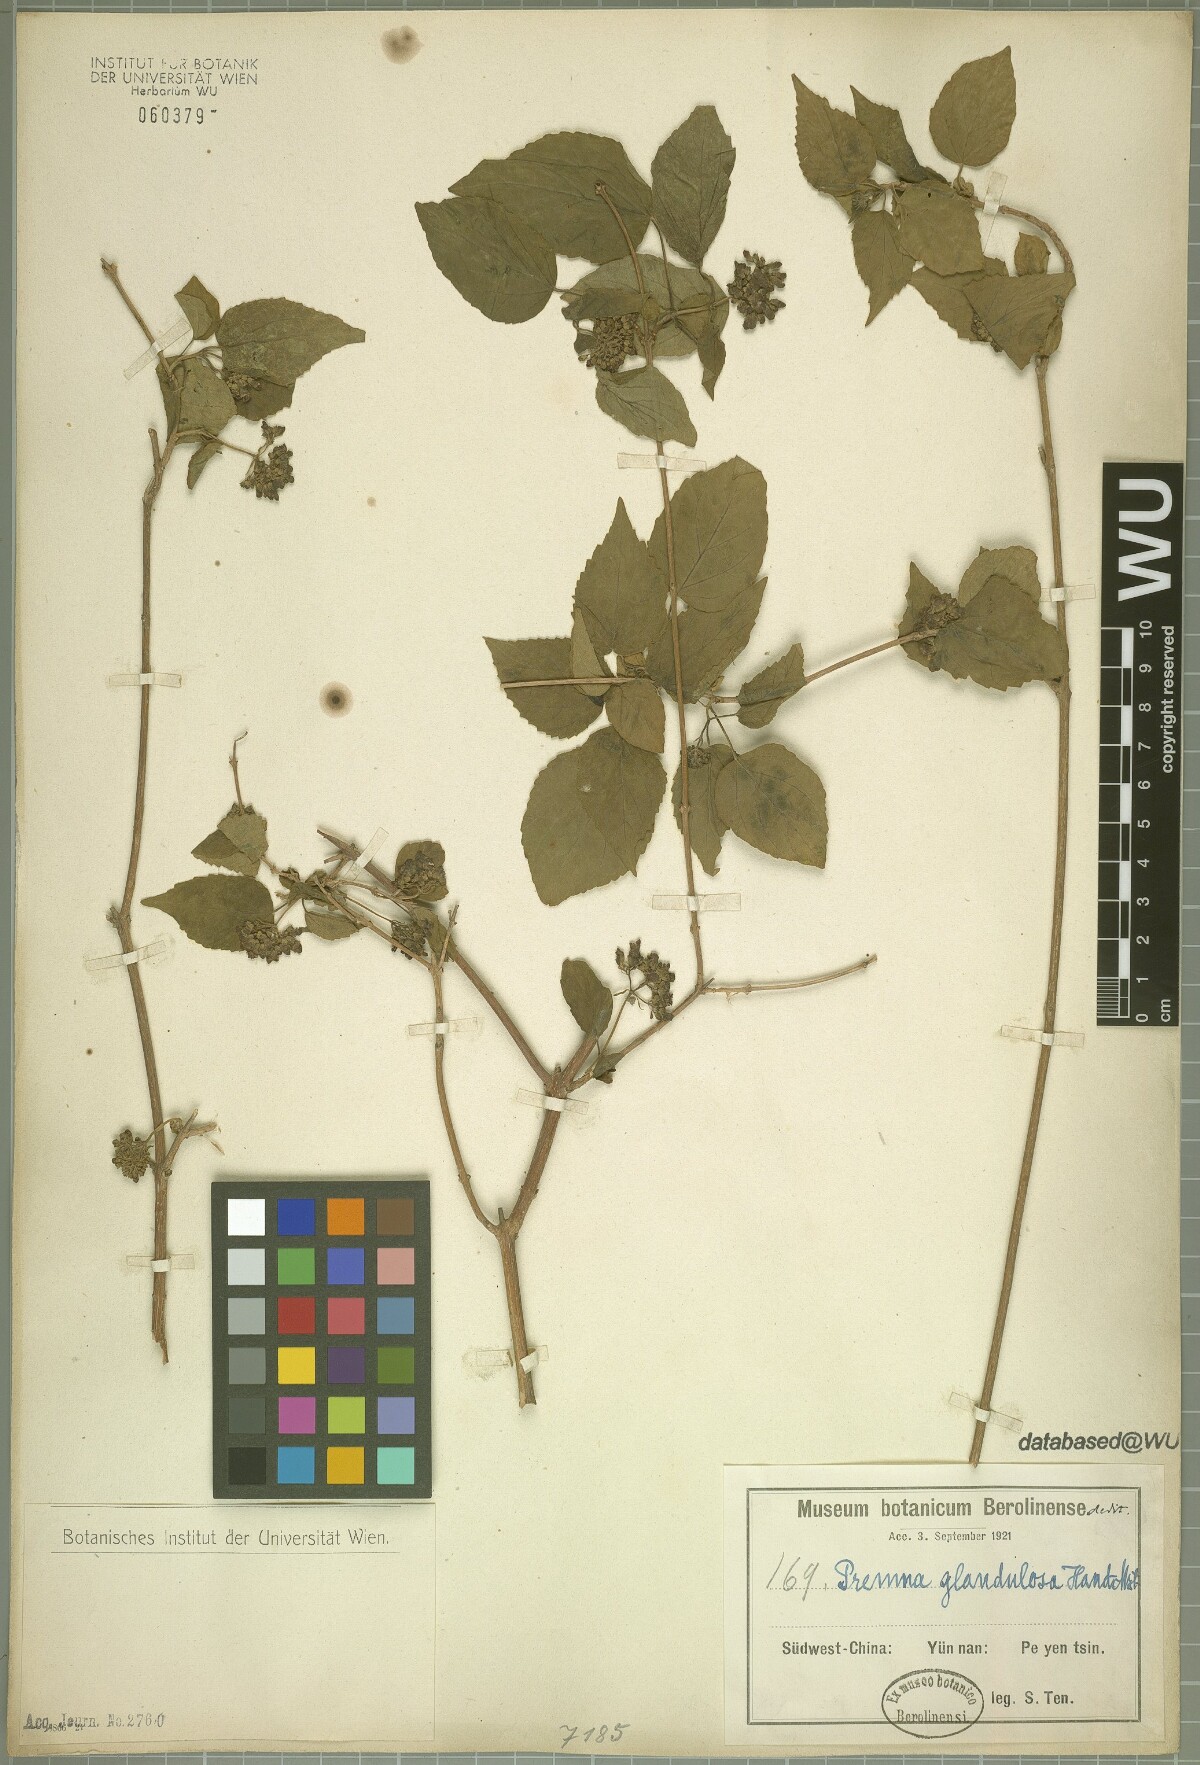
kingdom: Plantae
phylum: Tracheophyta
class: Magnoliopsida
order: Lamiales
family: Lamiaceae
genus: Premna
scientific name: Premna glandulosa
